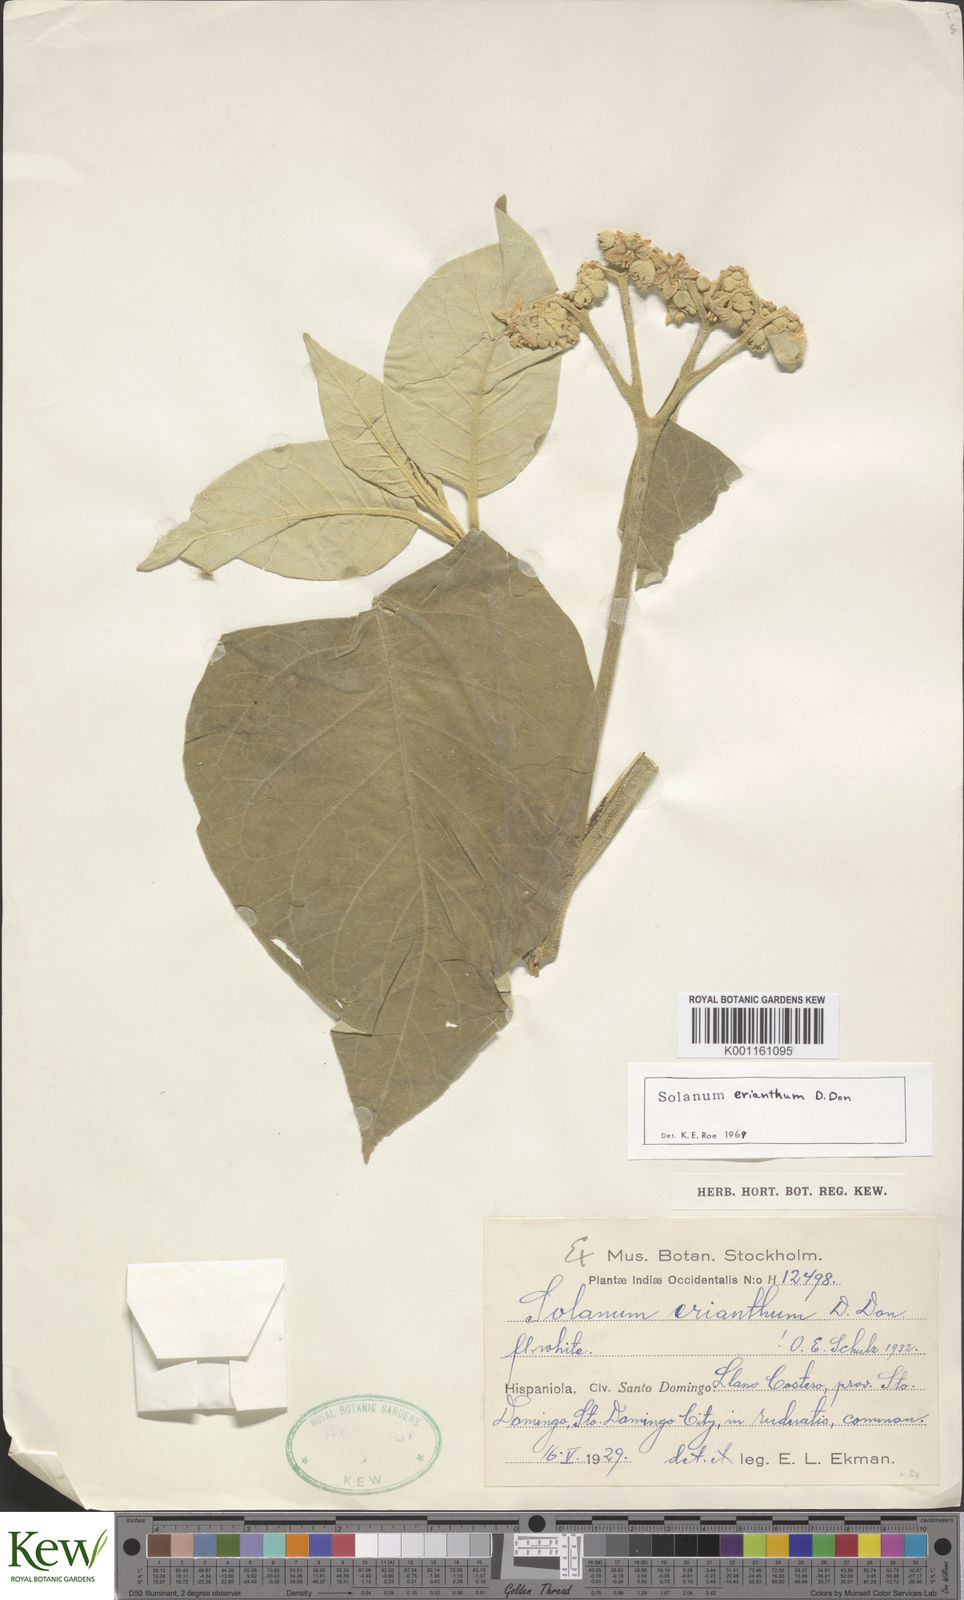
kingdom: Plantae
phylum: Tracheophyta
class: Magnoliopsida
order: Solanales
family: Solanaceae
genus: Solanum
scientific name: Solanum erianthum
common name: Tobacco-tree
